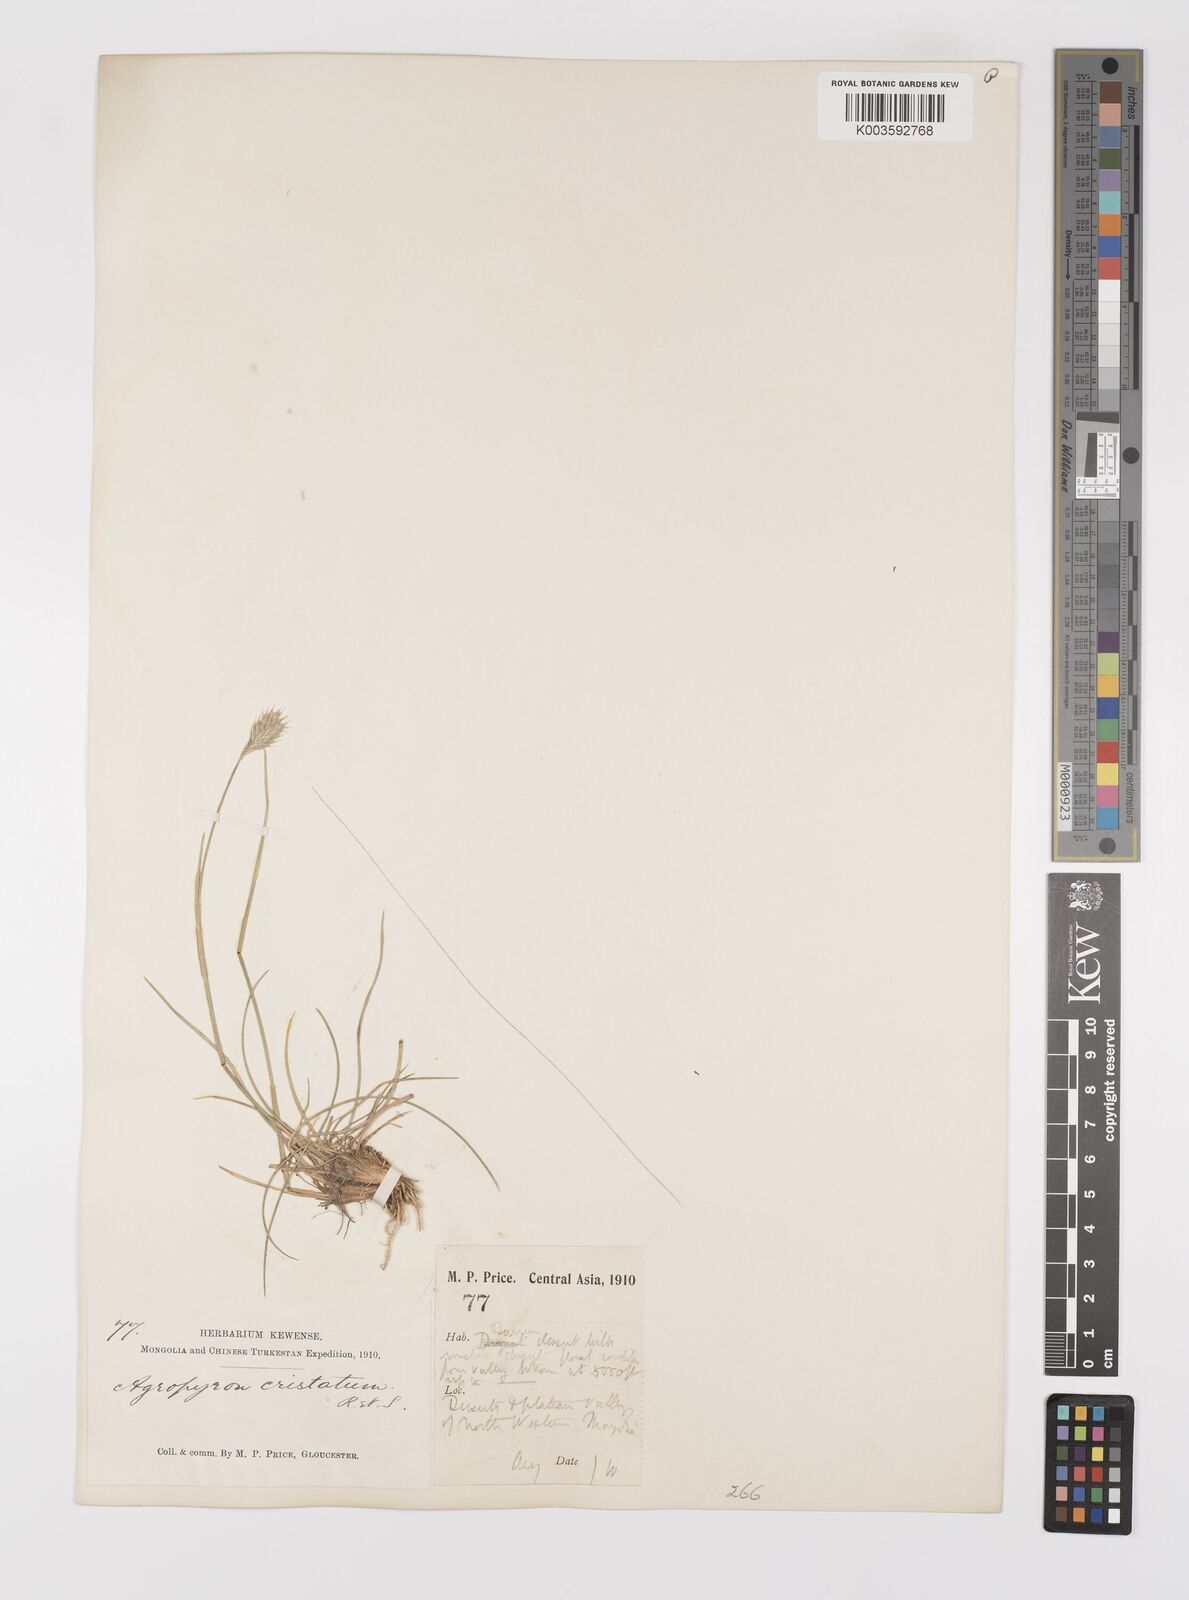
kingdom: Plantae
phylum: Tracheophyta
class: Liliopsida
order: Poales
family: Poaceae
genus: Agropyron
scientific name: Agropyron cristatum
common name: Crested wheatgrass
